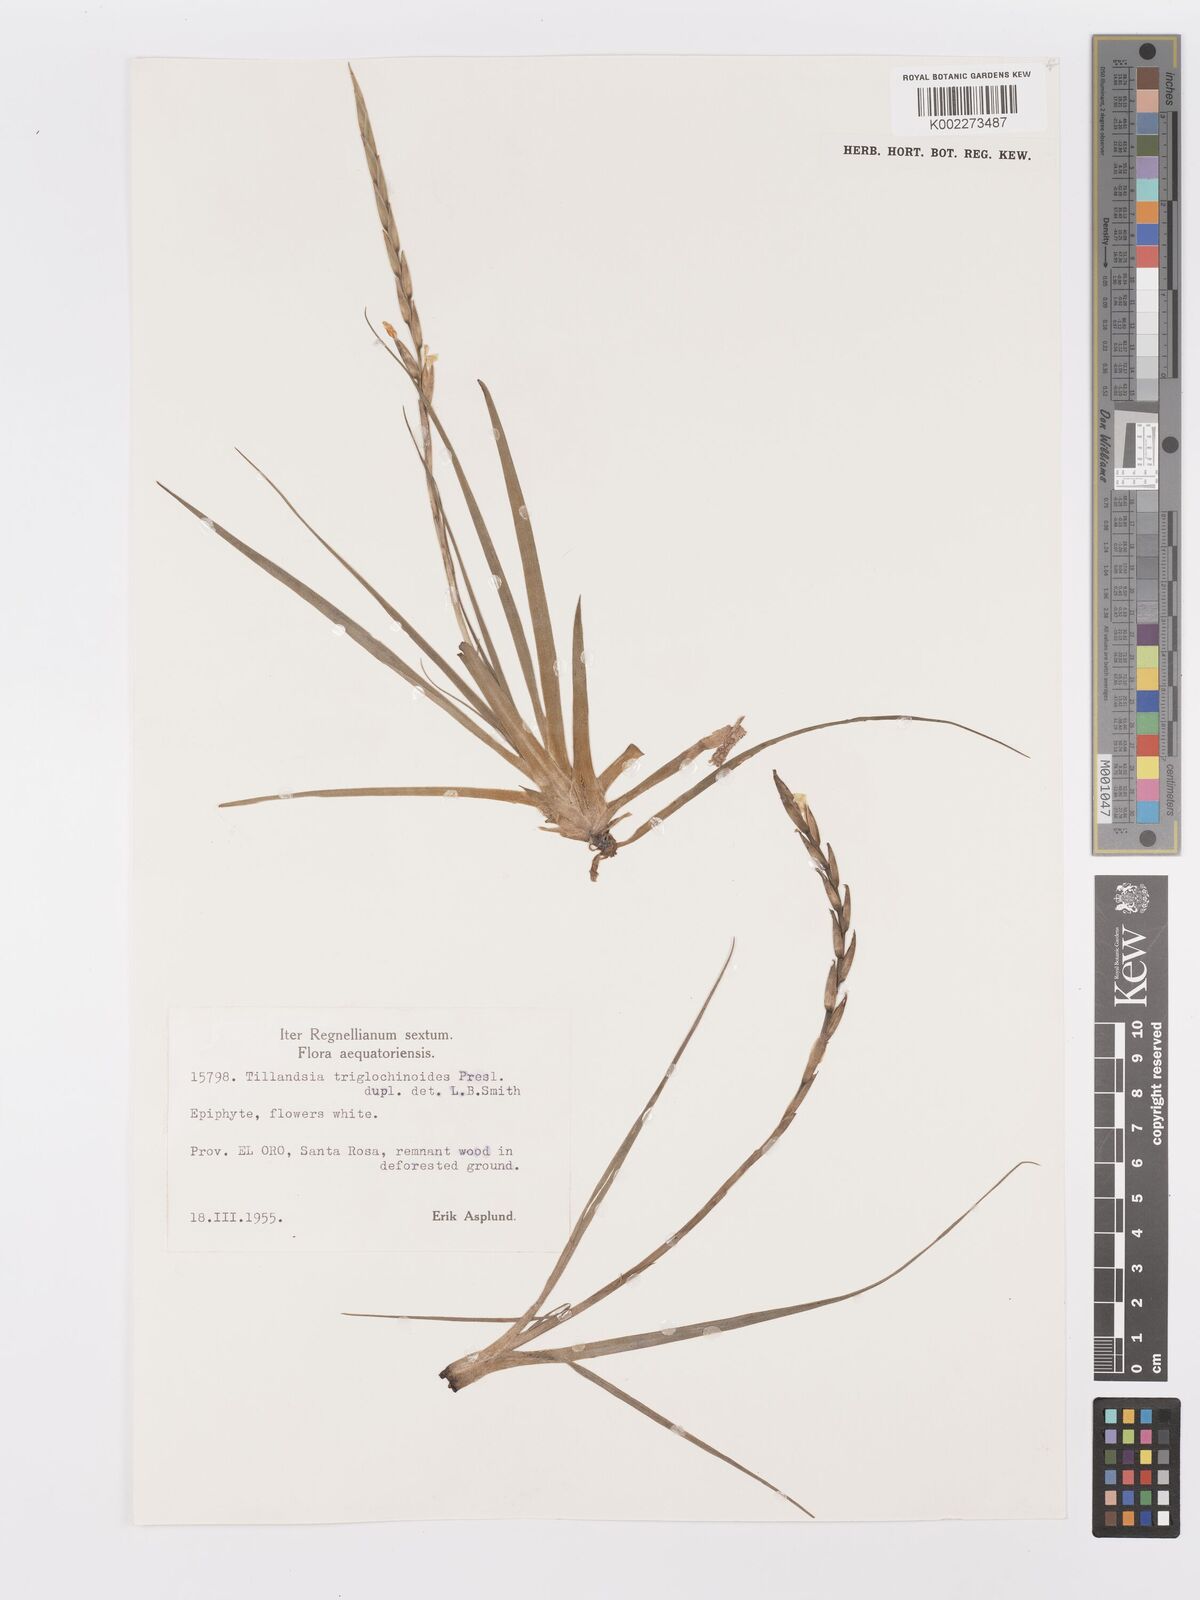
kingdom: Plantae
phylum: Tracheophyta
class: Liliopsida
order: Poales
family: Bromeliaceae
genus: Lemeltonia
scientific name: Lemeltonia triglochinoides
